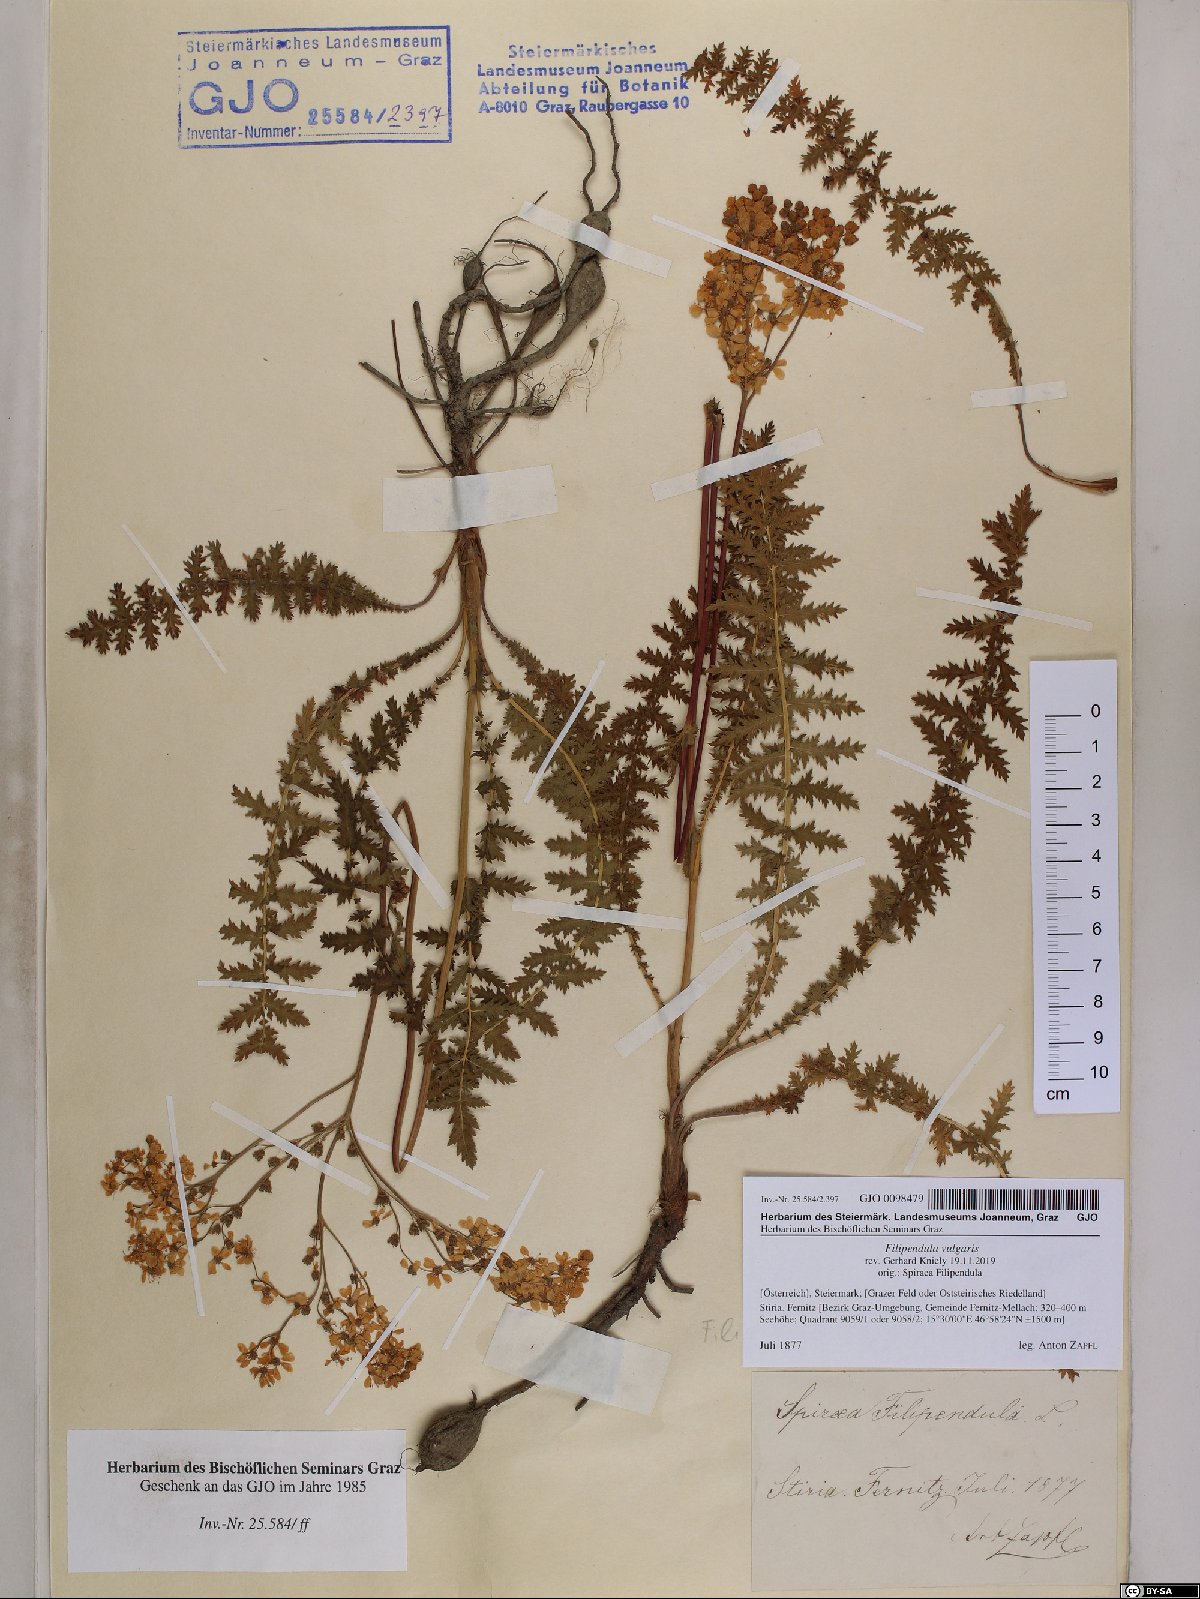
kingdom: Plantae
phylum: Tracheophyta
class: Magnoliopsida
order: Rosales
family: Rosaceae
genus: Filipendula
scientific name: Filipendula vulgaris
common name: Dropwort
